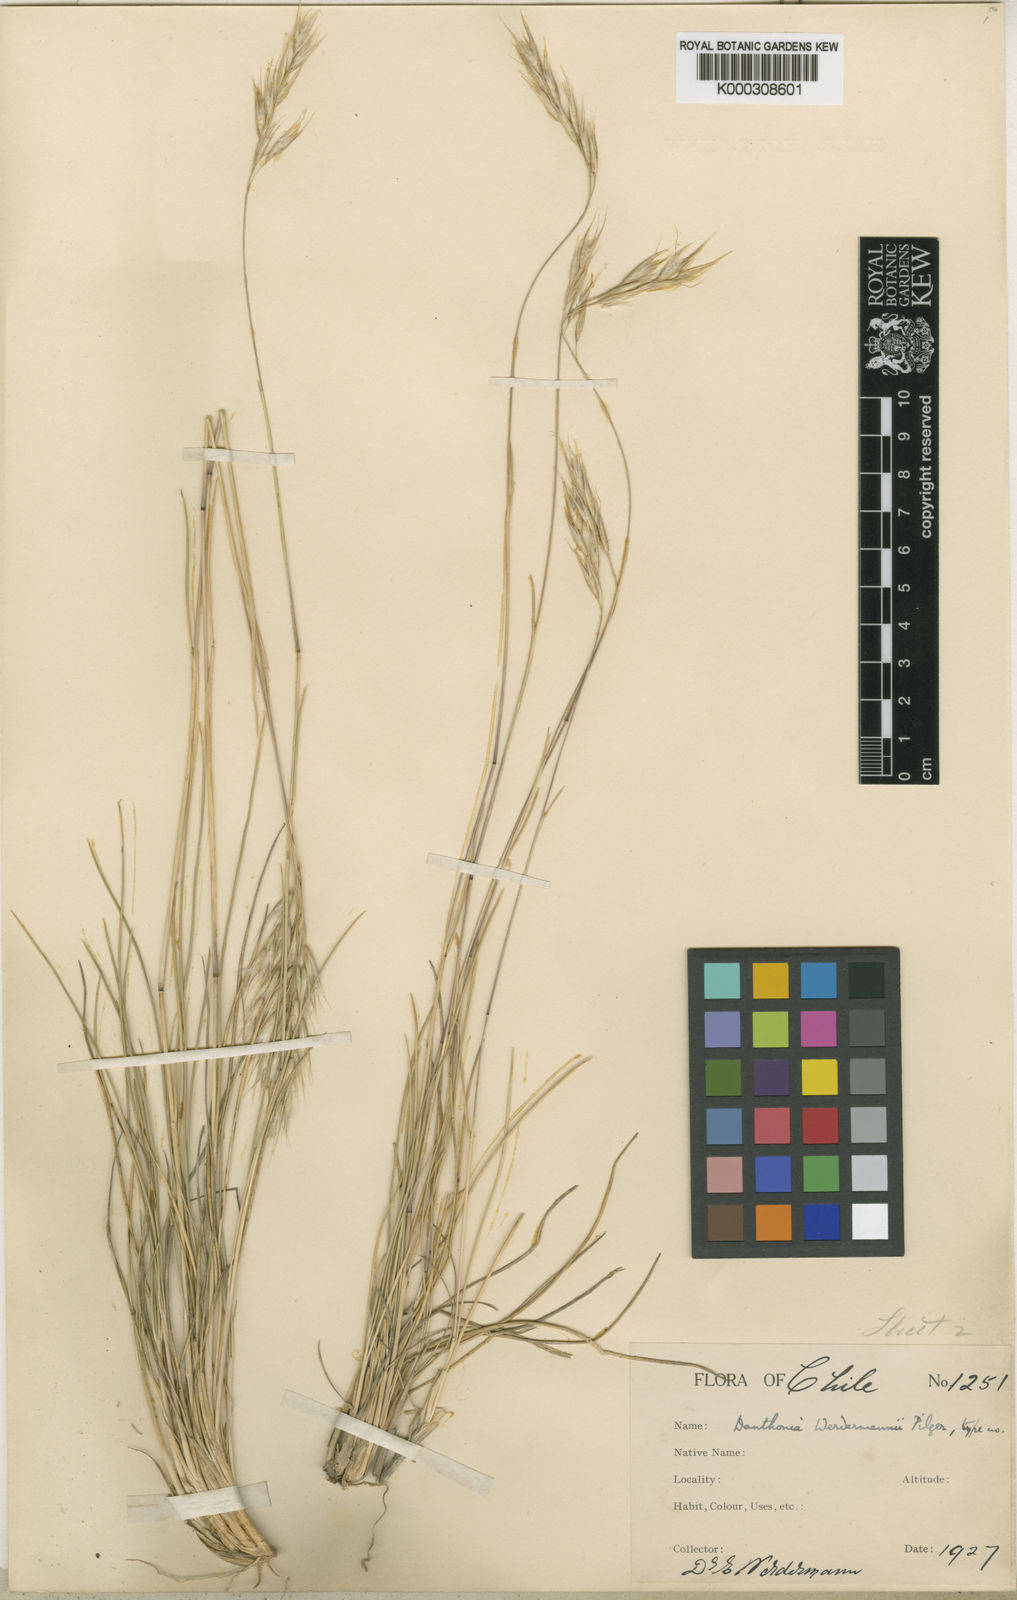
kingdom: Plantae
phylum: Tracheophyta
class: Liliopsida
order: Poales
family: Poaceae
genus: Rytidosperma
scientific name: Rytidosperma virescens
